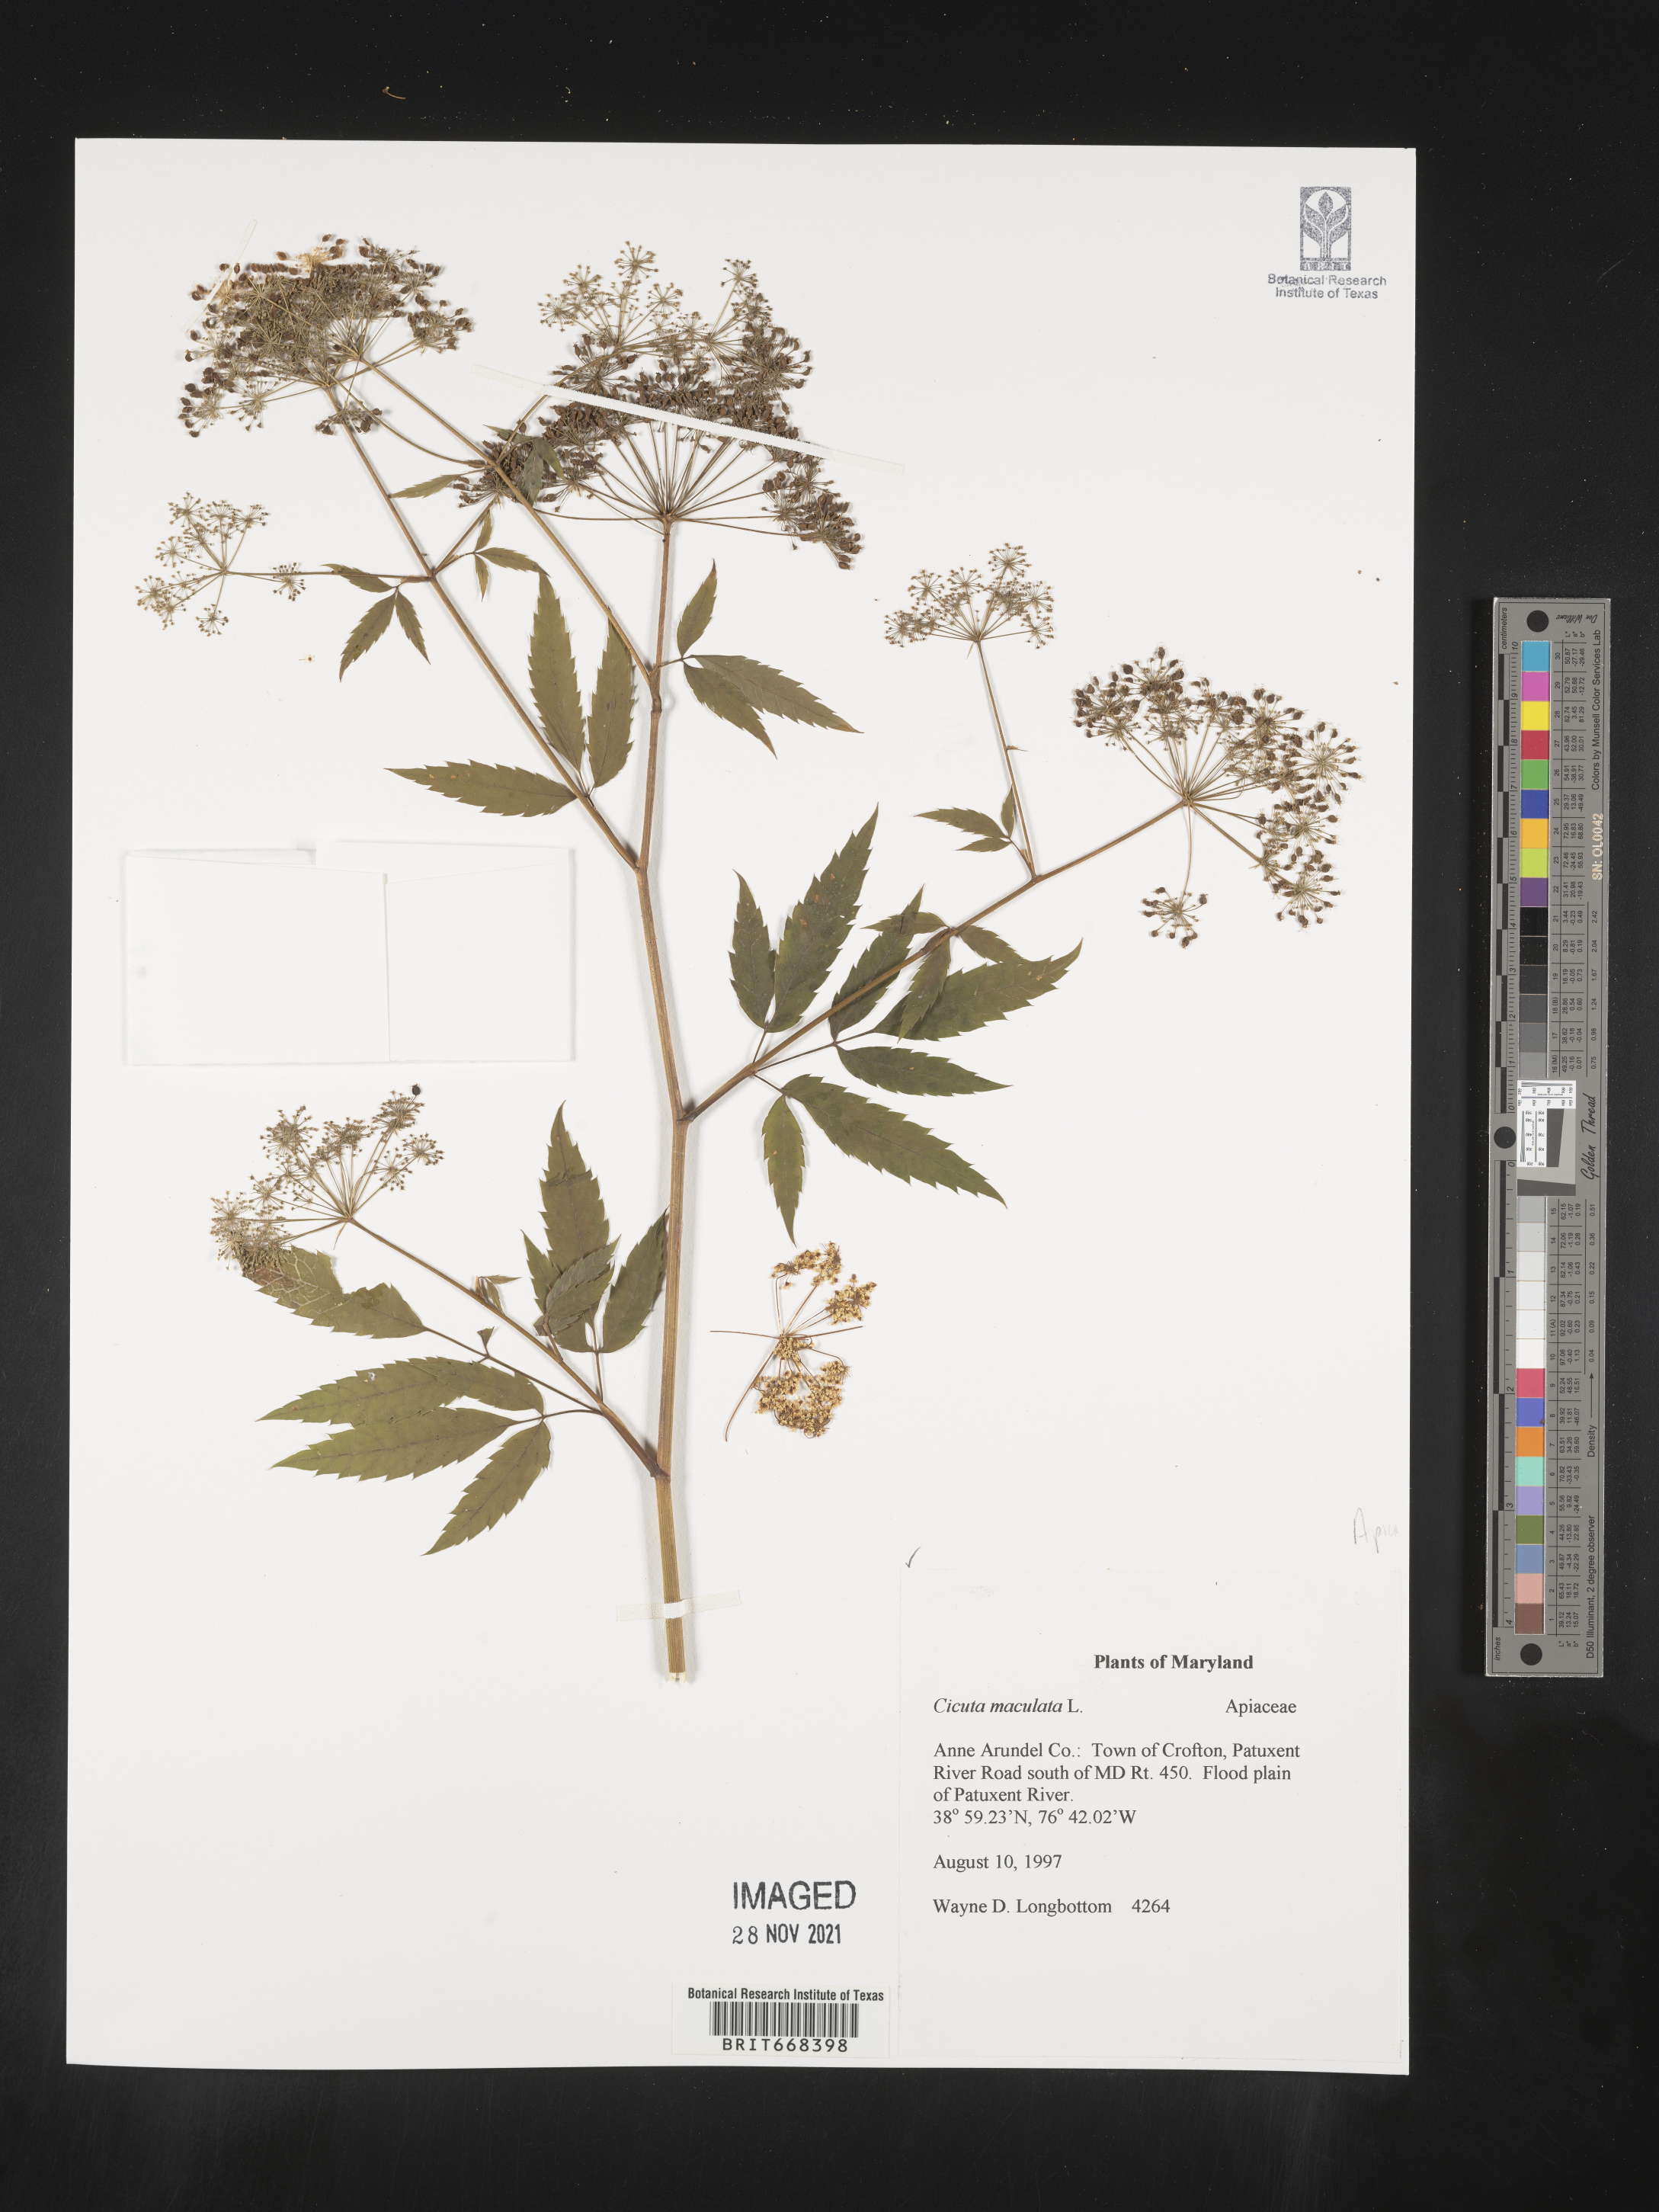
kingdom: Plantae
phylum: Tracheophyta
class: Magnoliopsida
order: Apiales
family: Apiaceae
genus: Cicuta
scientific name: Cicuta maculata
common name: Spotted cowbane
